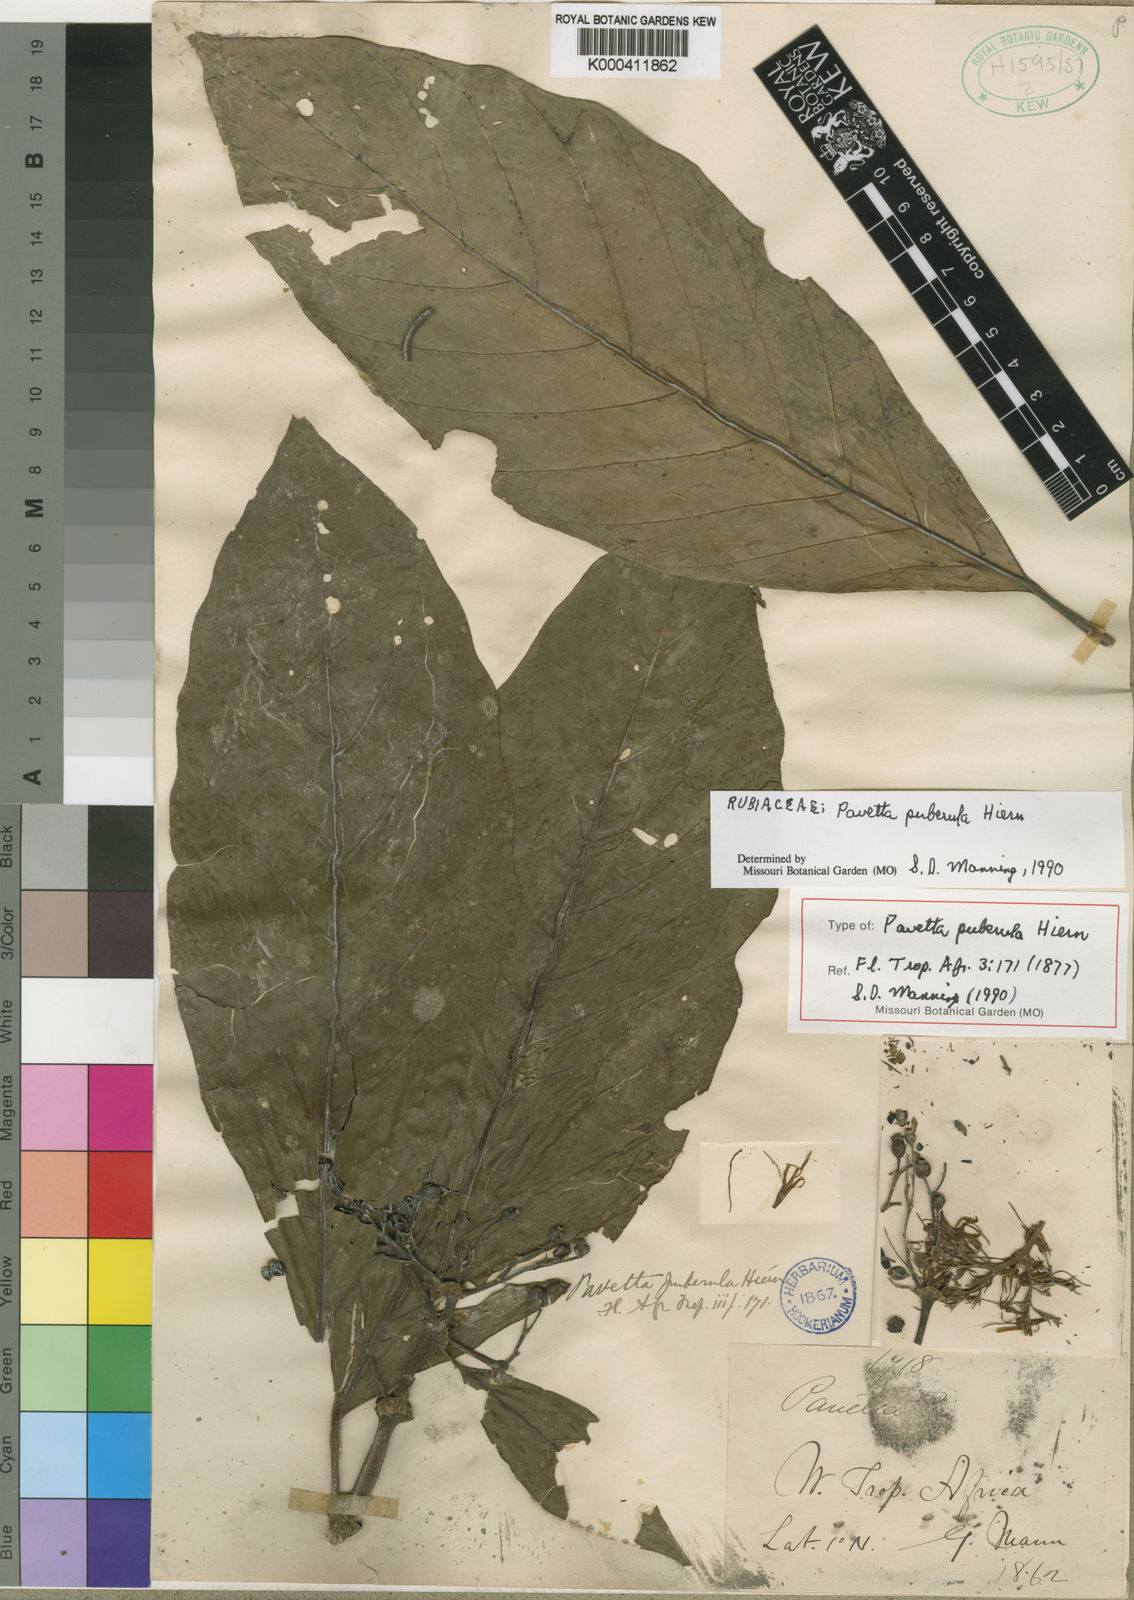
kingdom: Plantae
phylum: Tracheophyta
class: Magnoliopsida
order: Gentianales
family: Rubiaceae
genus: Pavetta
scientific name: Pavetta puberula
